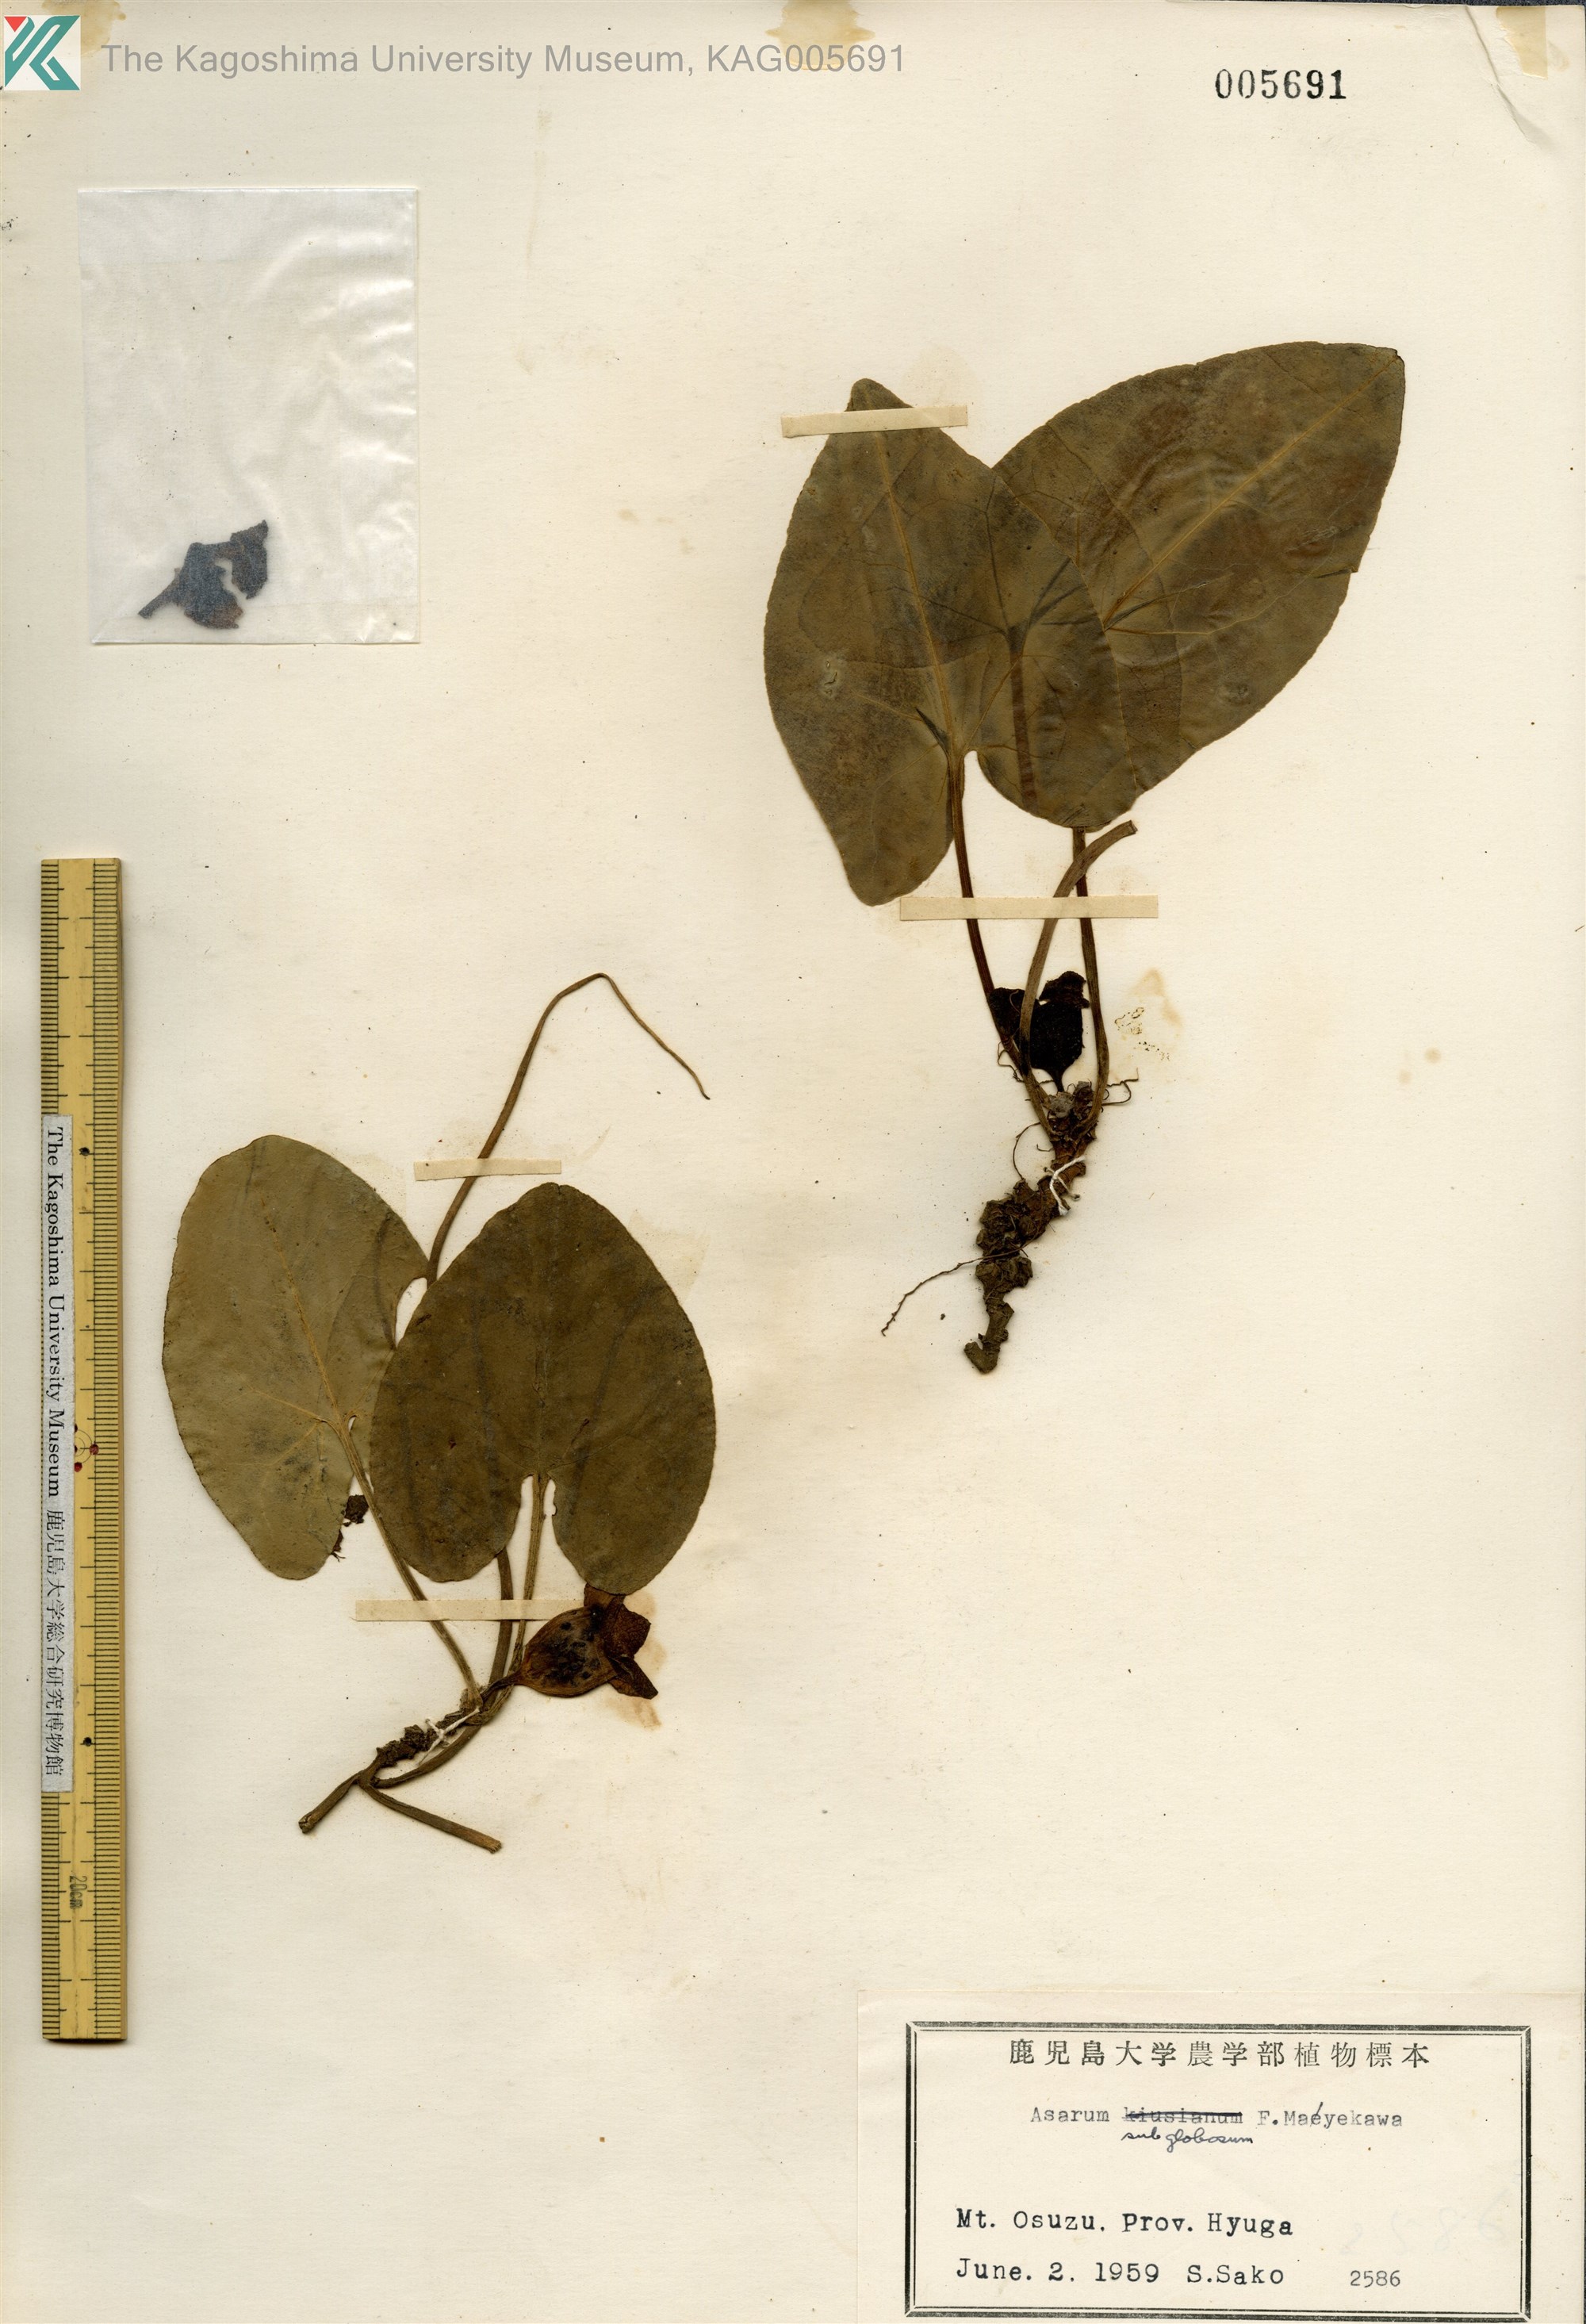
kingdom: Plantae
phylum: Tracheophyta
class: Magnoliopsida
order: Piperales
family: Aristolochiaceae
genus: Asarum
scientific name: Asarum subglobosum
